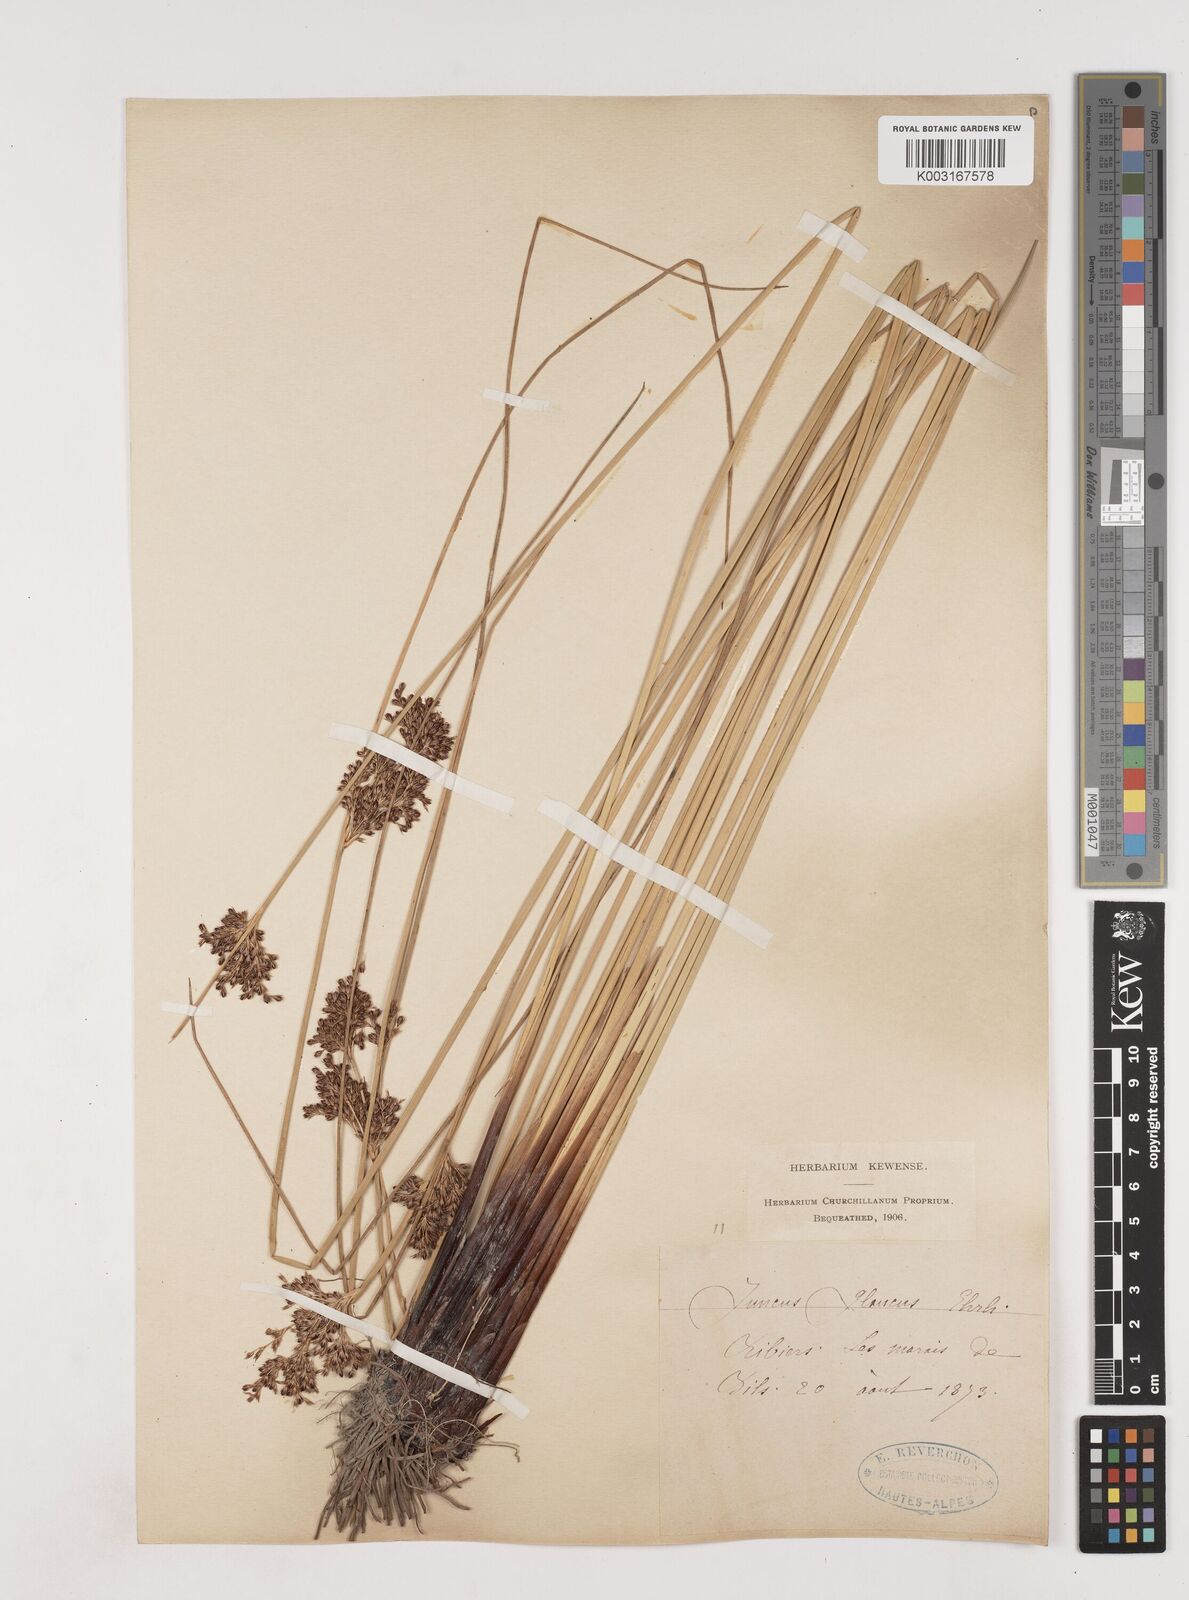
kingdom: Plantae
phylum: Tracheophyta
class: Liliopsida
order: Poales
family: Juncaceae
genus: Juncus
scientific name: Juncus inflexus
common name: Hard rush
